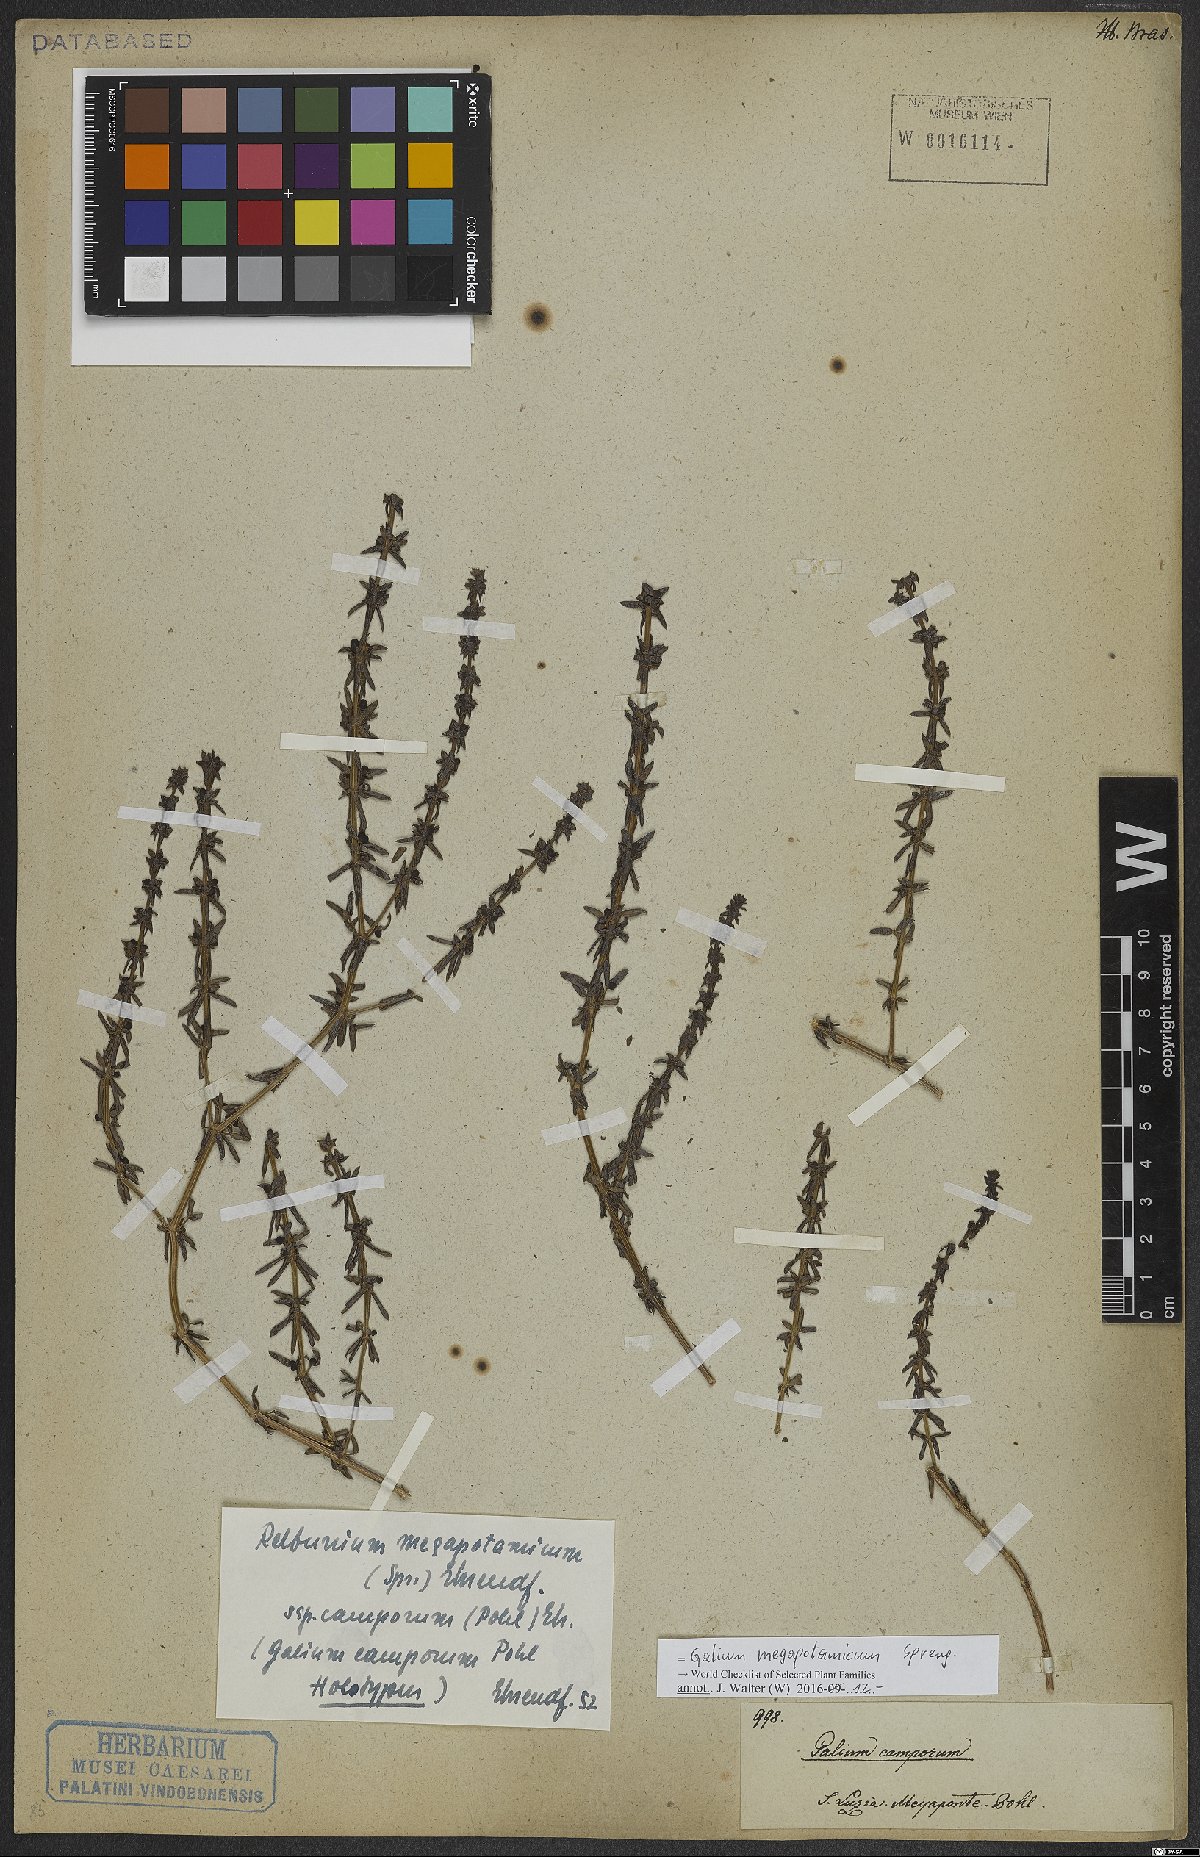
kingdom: Plantae
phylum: Tracheophyta
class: Magnoliopsida
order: Gentianales
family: Rubiaceae
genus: Galium
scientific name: Galium megapotamicum
